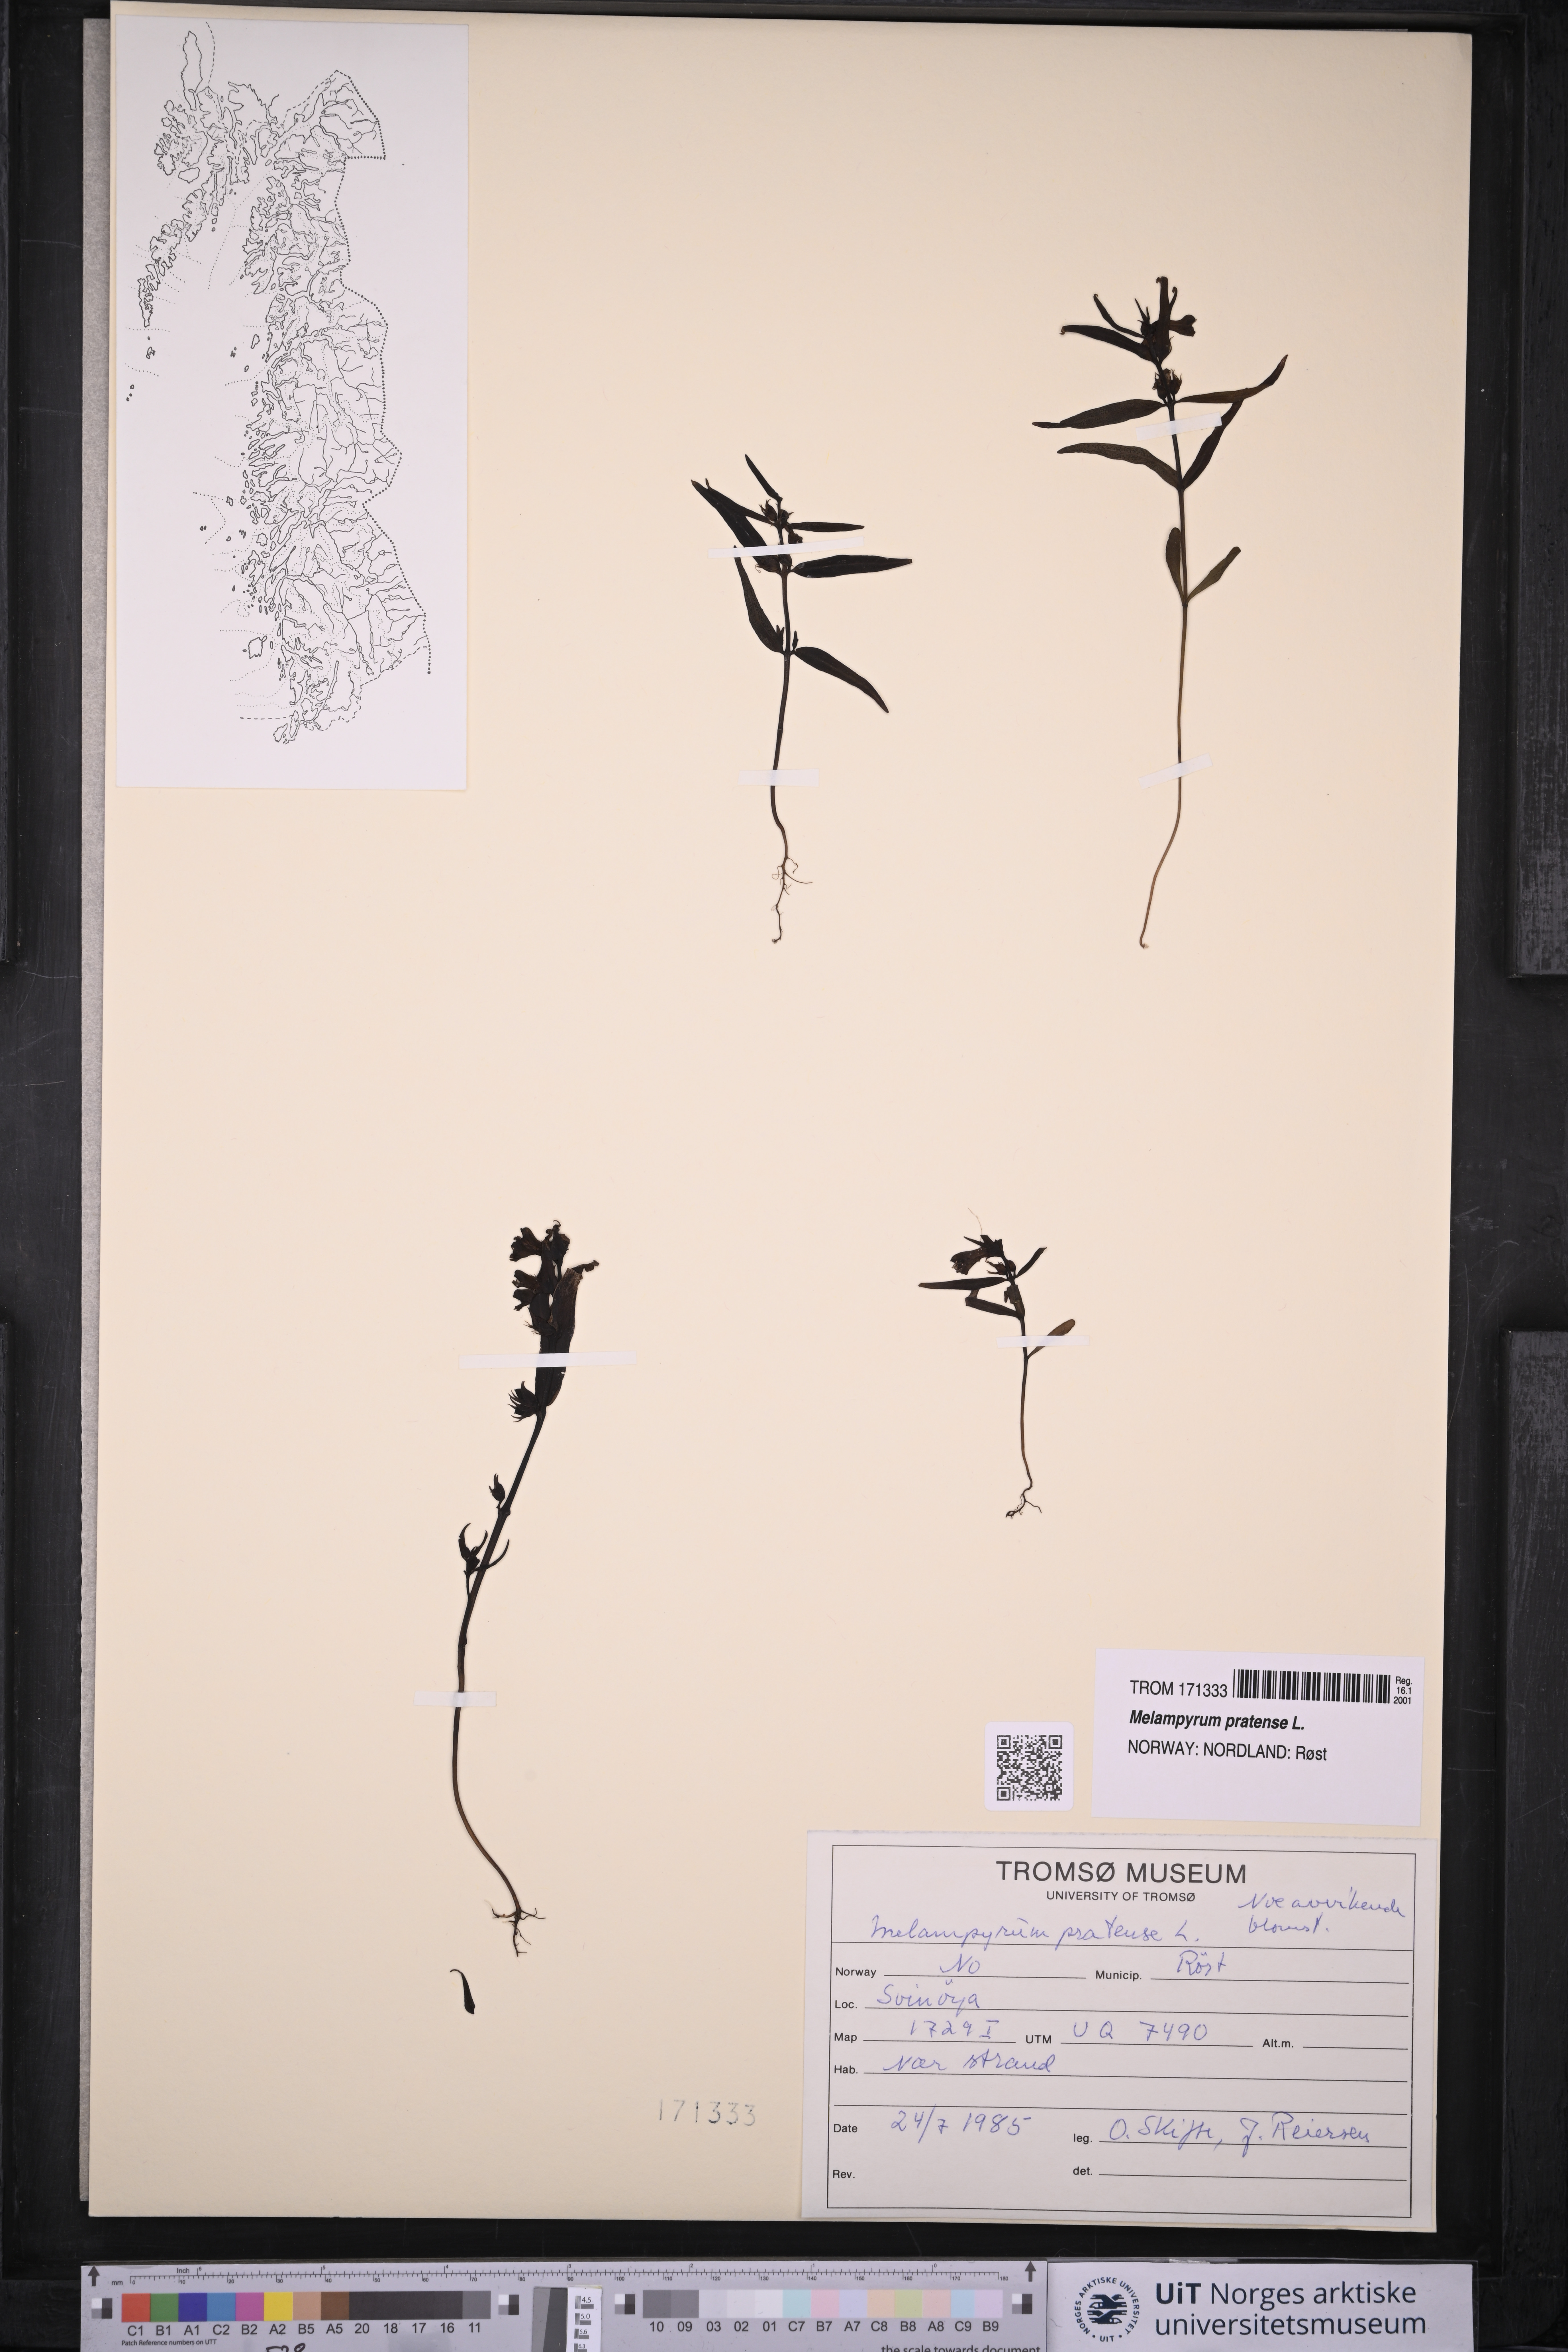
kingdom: Plantae
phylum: Tracheophyta
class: Magnoliopsida
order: Lamiales
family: Orobanchaceae
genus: Melampyrum
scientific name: Melampyrum pratense
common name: Common cow-wheat
